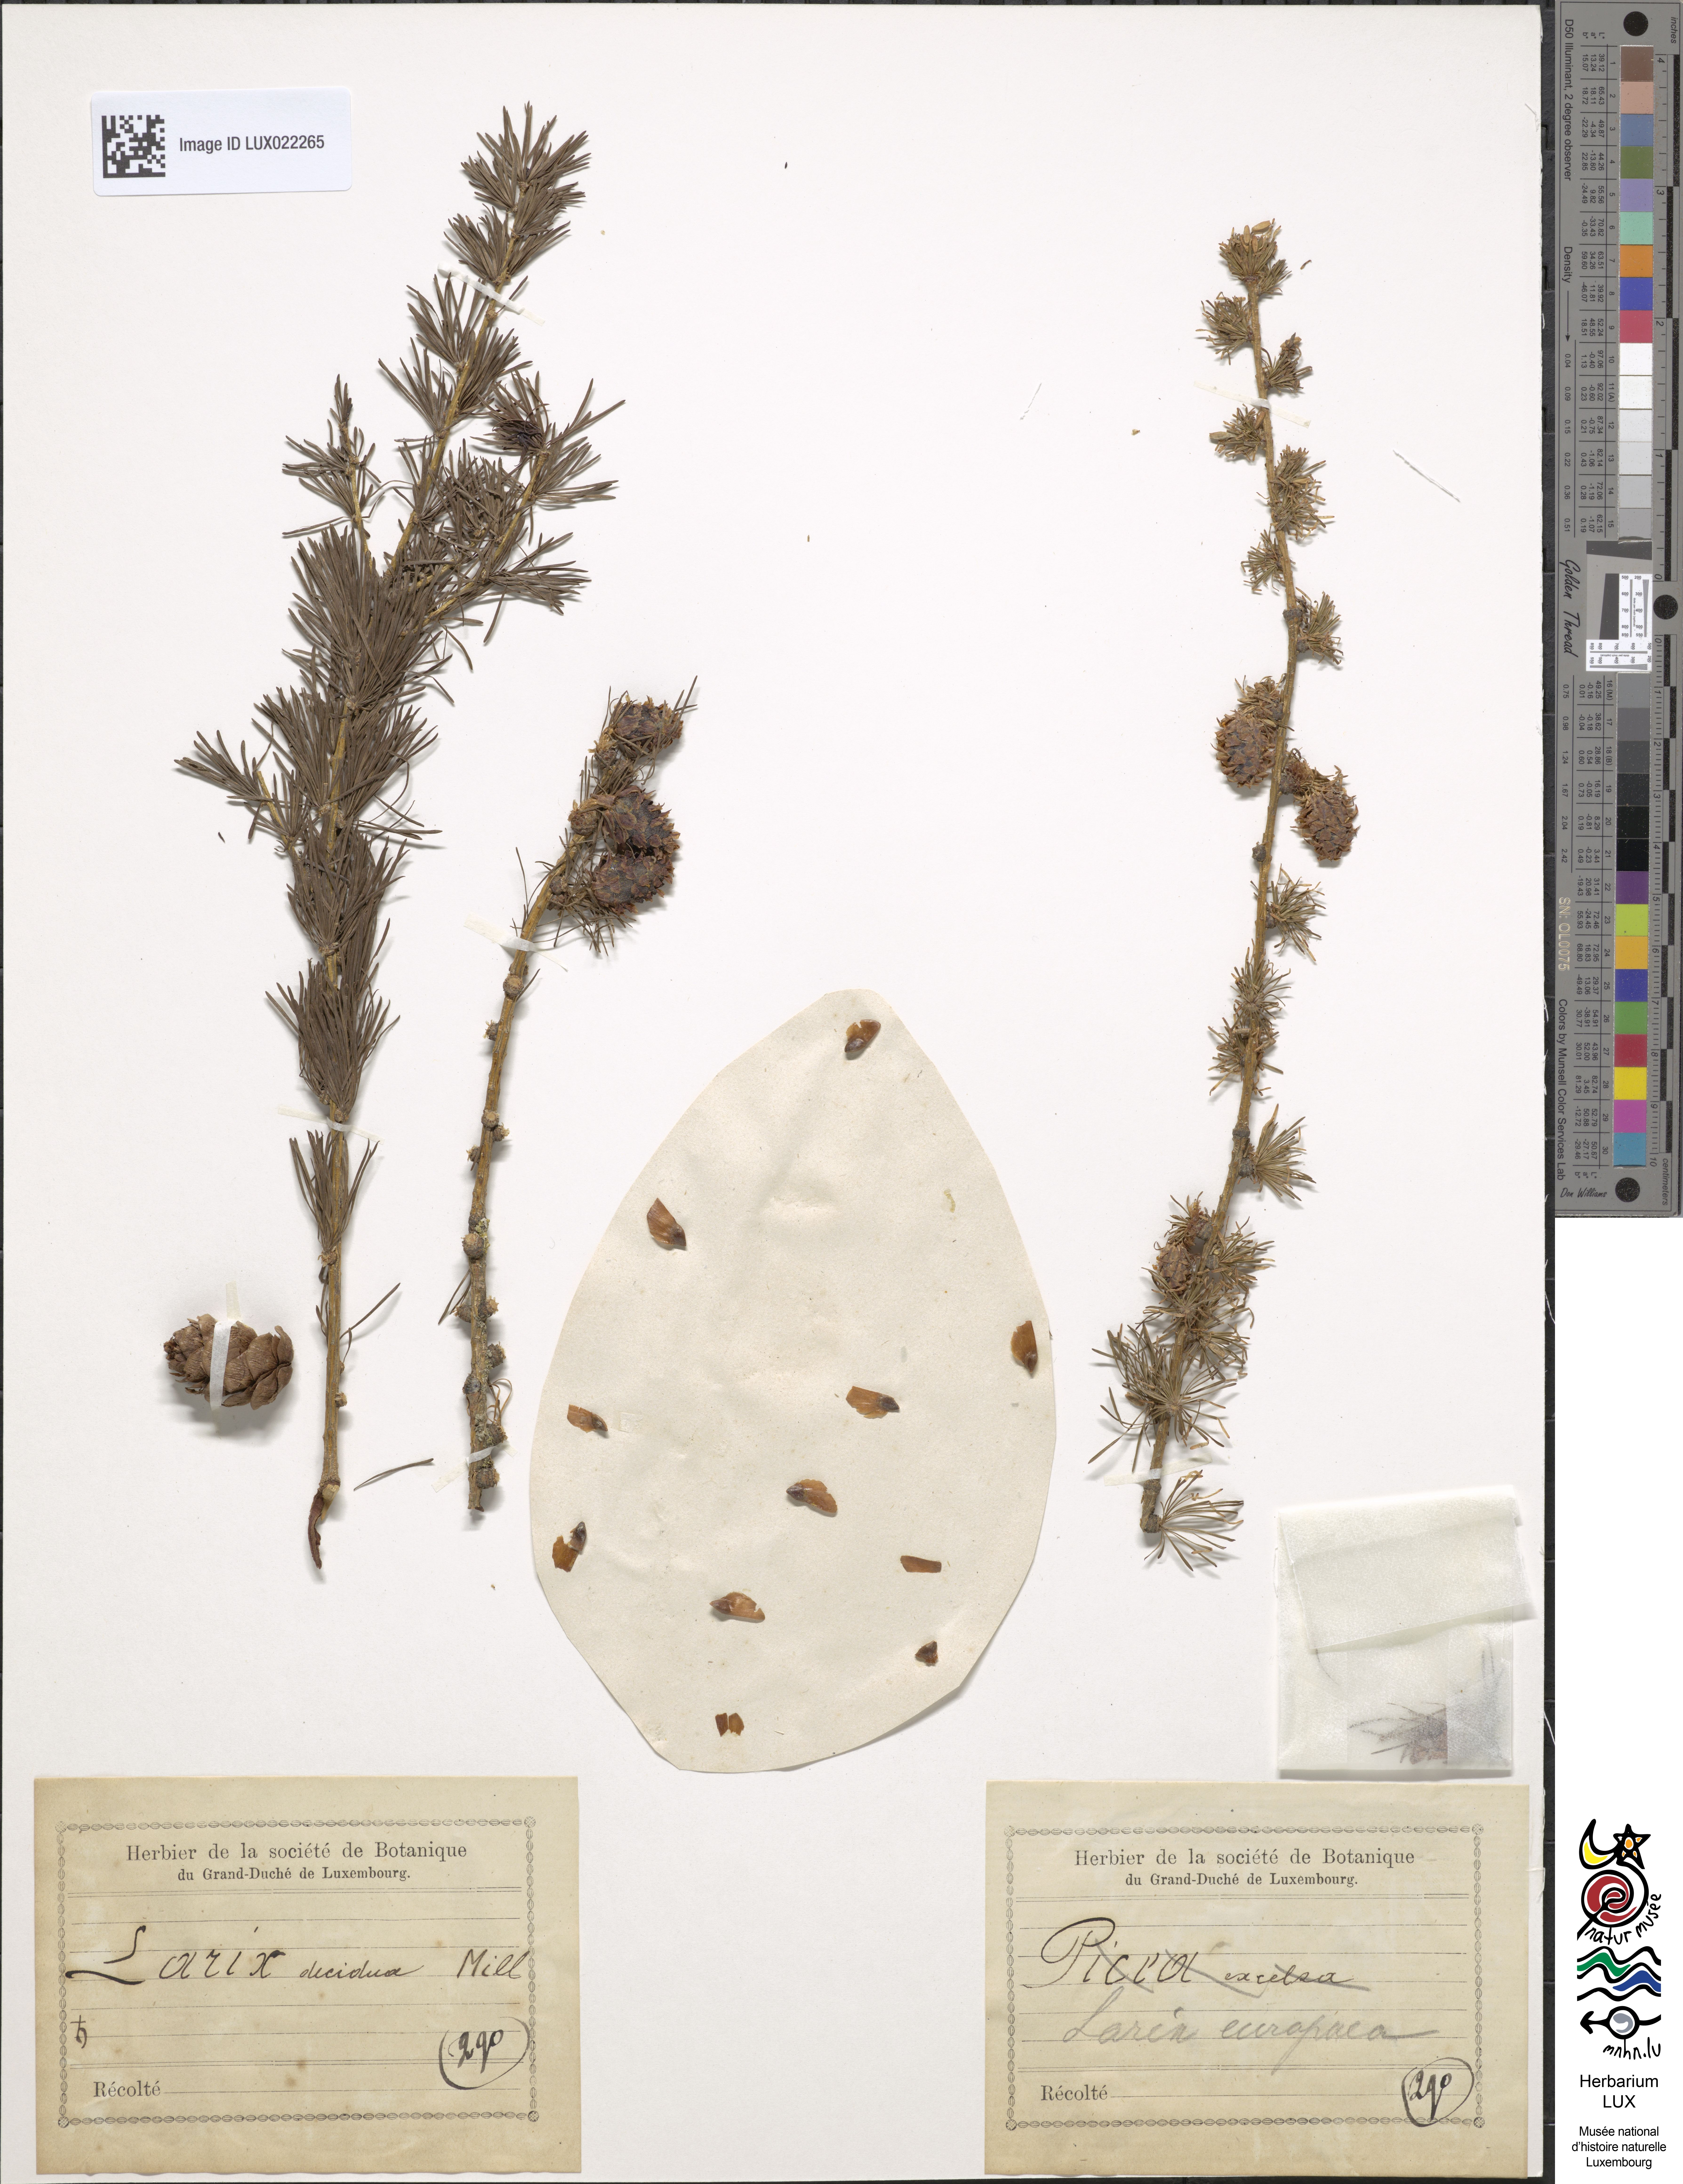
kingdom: Plantae
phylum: Tracheophyta
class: Pinopsida
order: Pinales
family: Pinaceae
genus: Larix
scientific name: Larix decidua
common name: European larch
